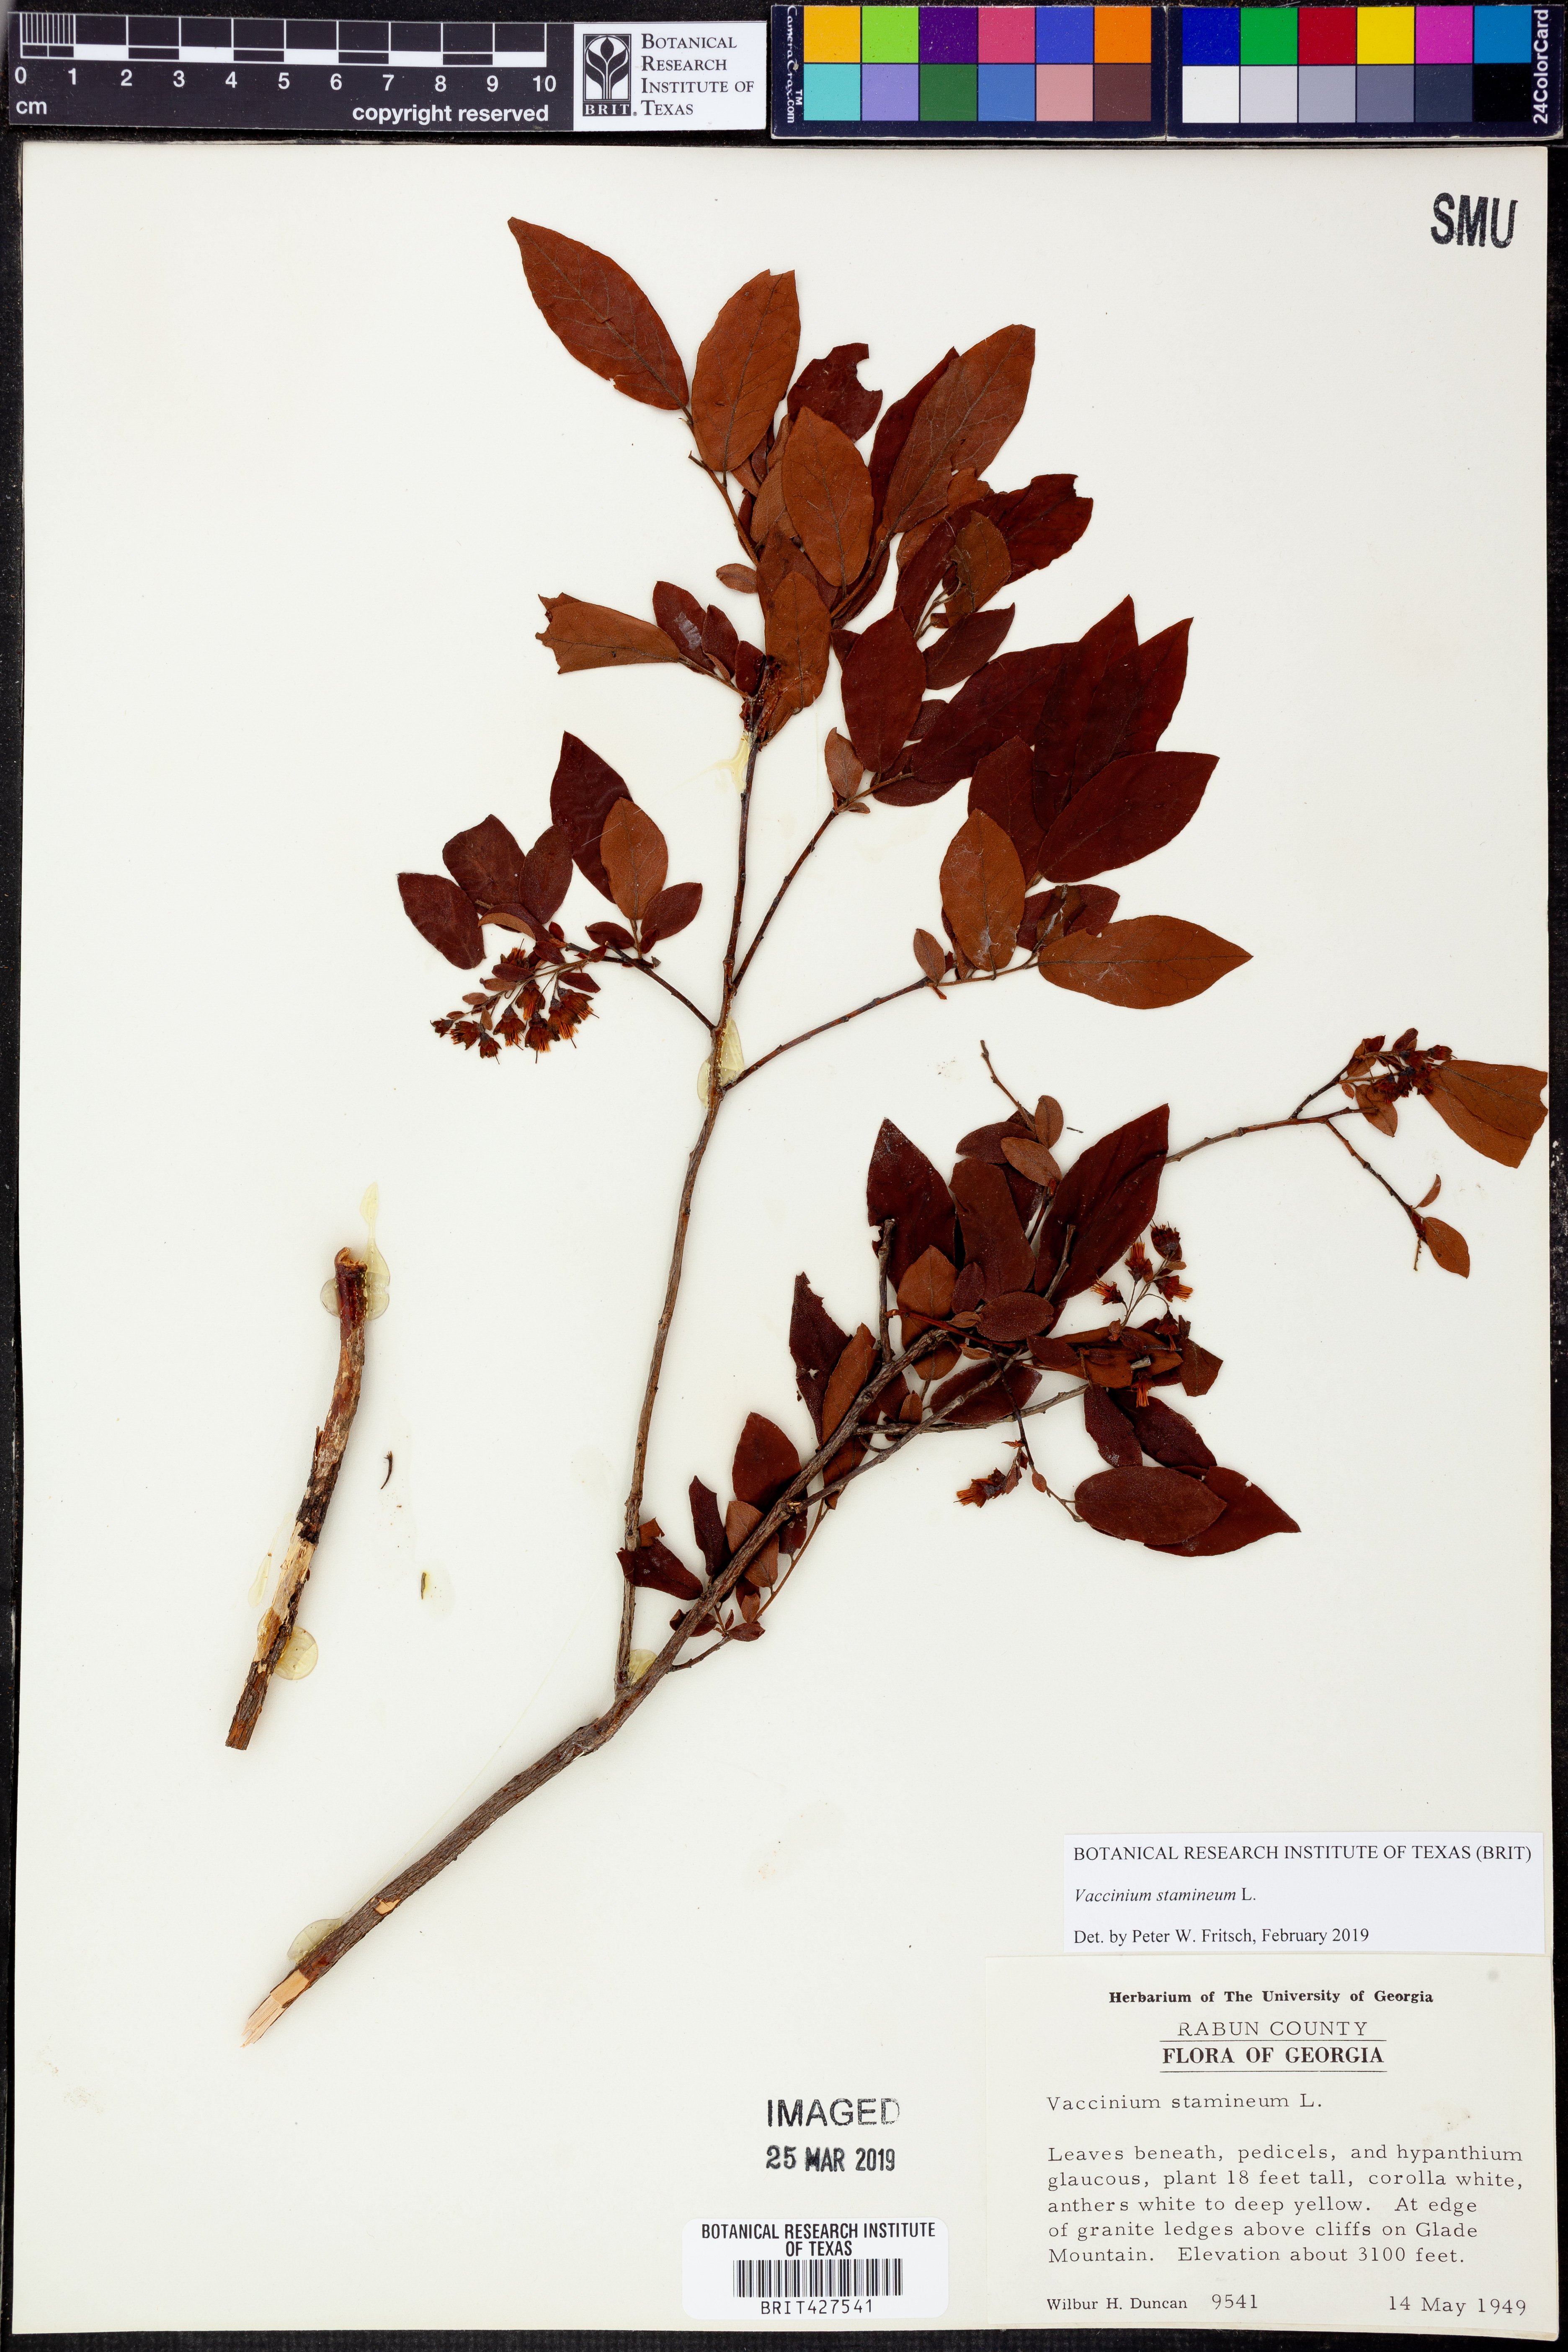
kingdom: Plantae
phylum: Tracheophyta
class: Magnoliopsida
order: Ericales
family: Ericaceae
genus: Vaccinium
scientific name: Vaccinium stamineum
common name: Deerberry
